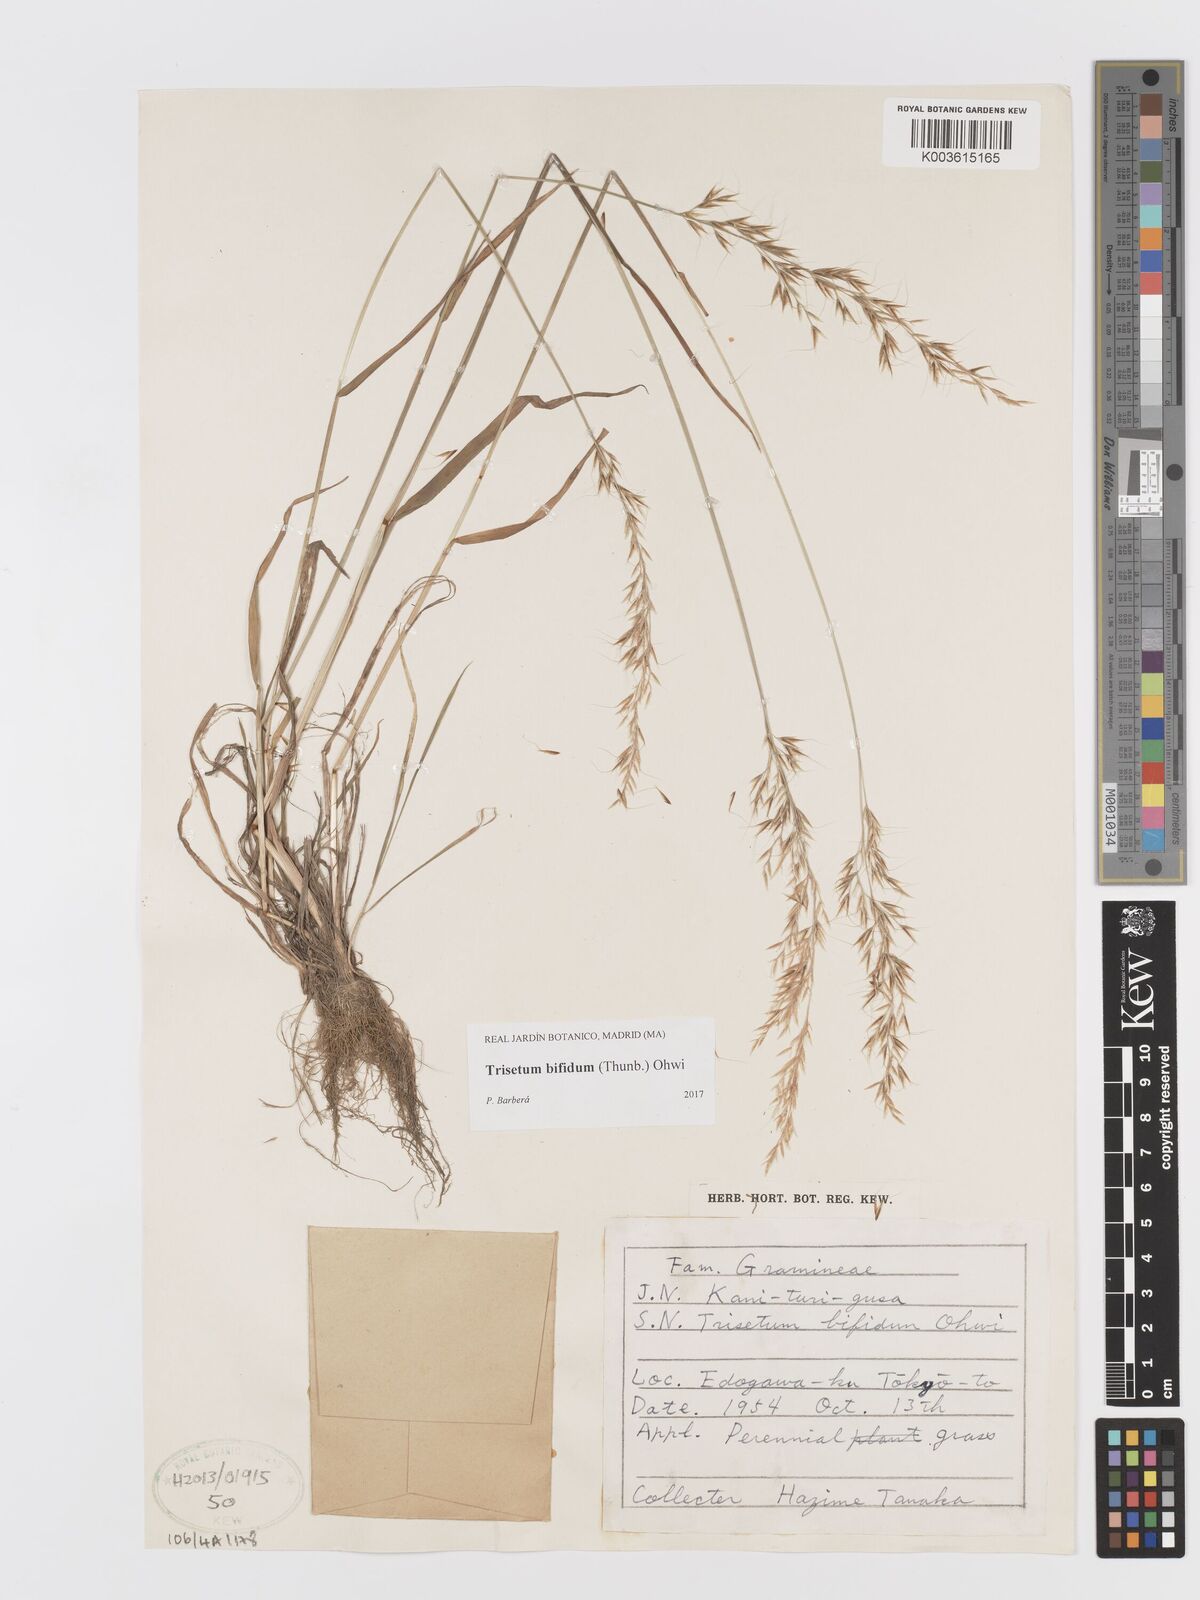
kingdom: Plantae
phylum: Tracheophyta
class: Liliopsida
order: Poales
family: Poaceae
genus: Sibirotrisetum
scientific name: Sibirotrisetum bifidum
